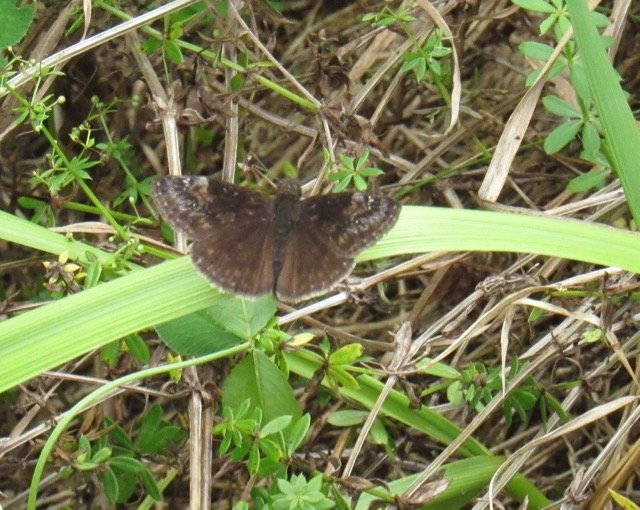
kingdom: Animalia
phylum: Arthropoda
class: Insecta
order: Lepidoptera
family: Hesperiidae
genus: Gesta
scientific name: Gesta
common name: Wild Indigo Duskywing
